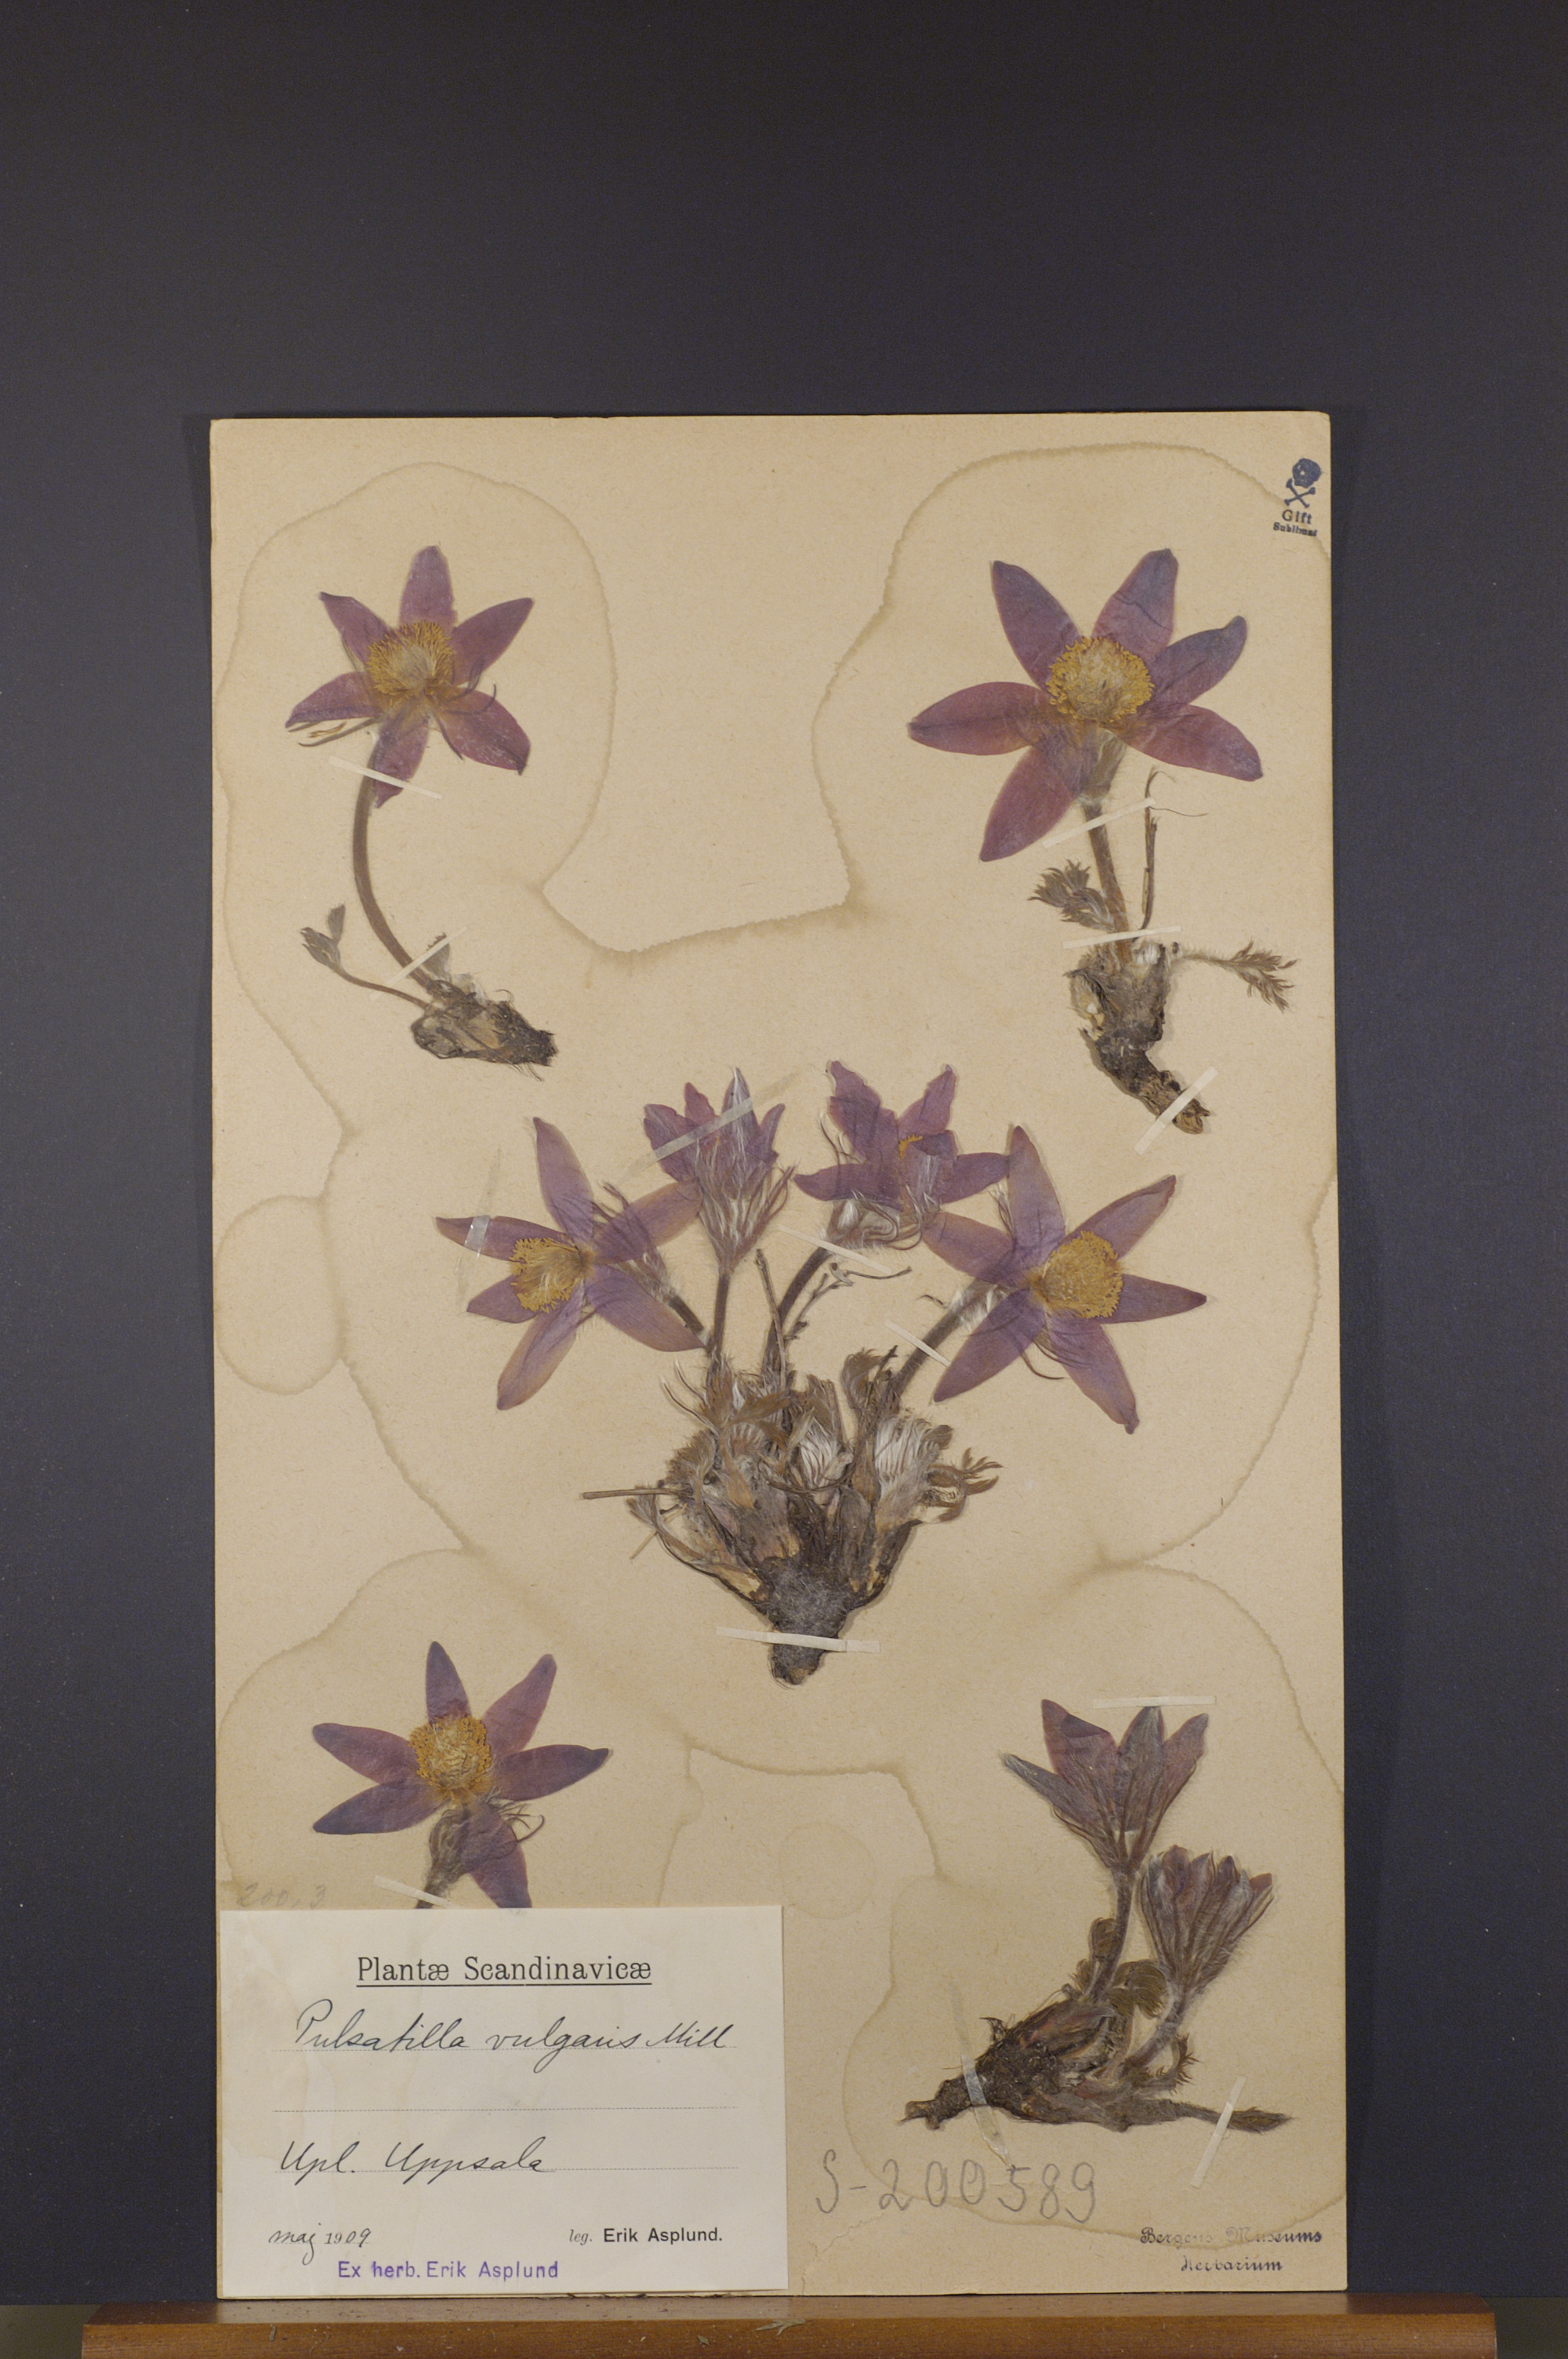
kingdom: Plantae
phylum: Tracheophyta
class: Magnoliopsida
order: Ranunculales
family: Ranunculaceae
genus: Pulsatilla
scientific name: Pulsatilla vulgaris
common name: Pasqueflower
